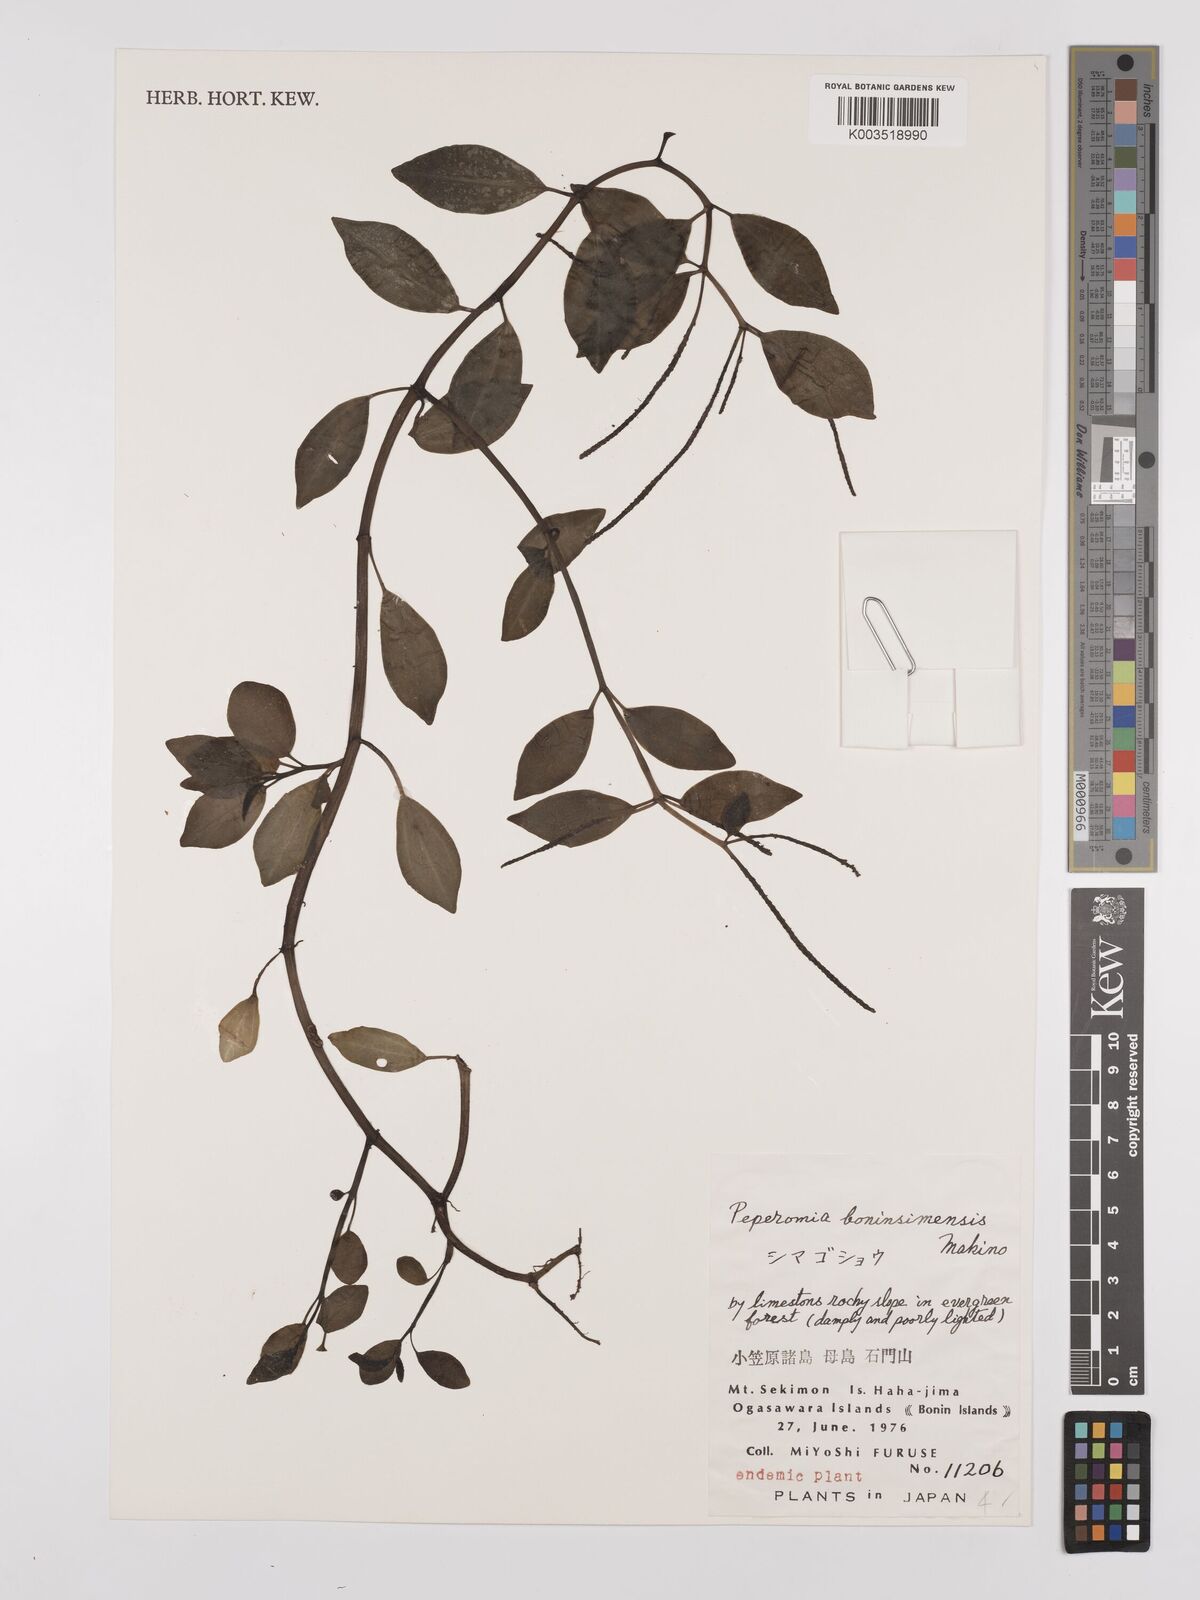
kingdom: Plantae
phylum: Tracheophyta
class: Magnoliopsida
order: Piperales
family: Piperaceae
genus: Peperomia
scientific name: Peperomia boninsimensis
